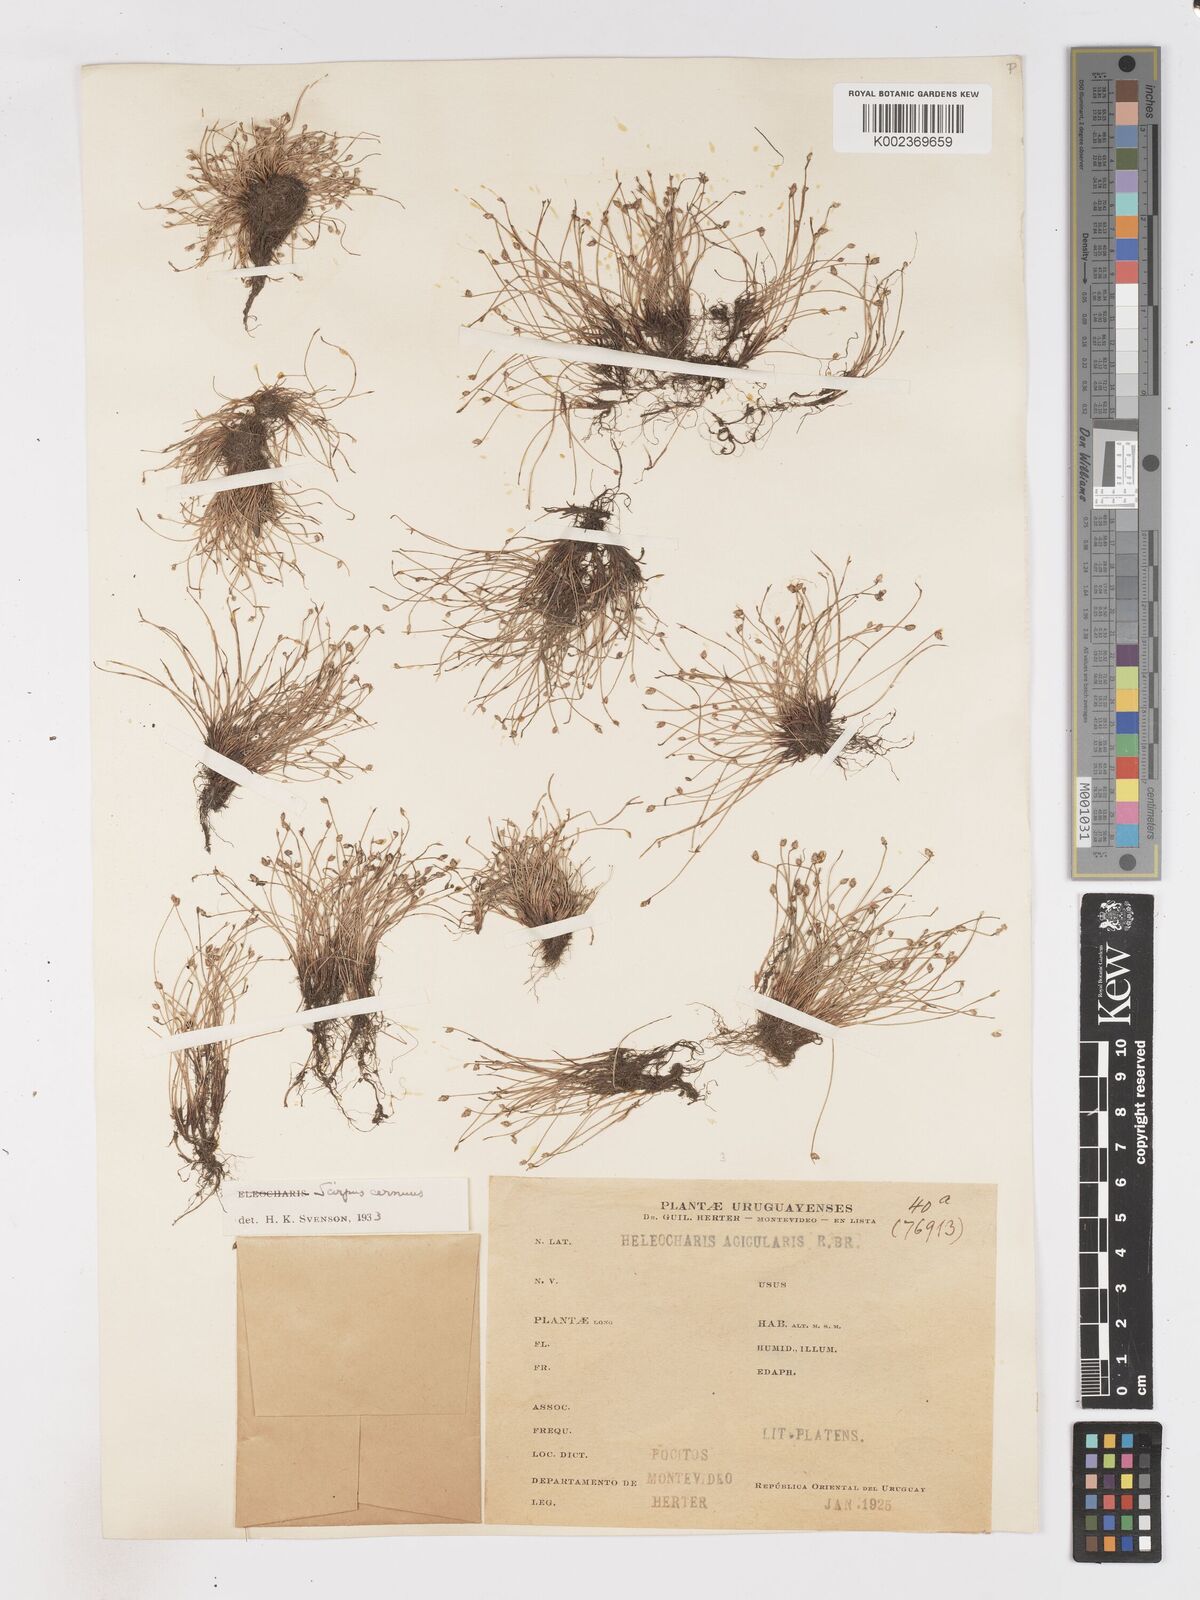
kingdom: Plantae
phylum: Tracheophyta
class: Liliopsida
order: Poales
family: Cyperaceae
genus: Isolepis
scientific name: Isolepis cernua
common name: Slender club-rush
